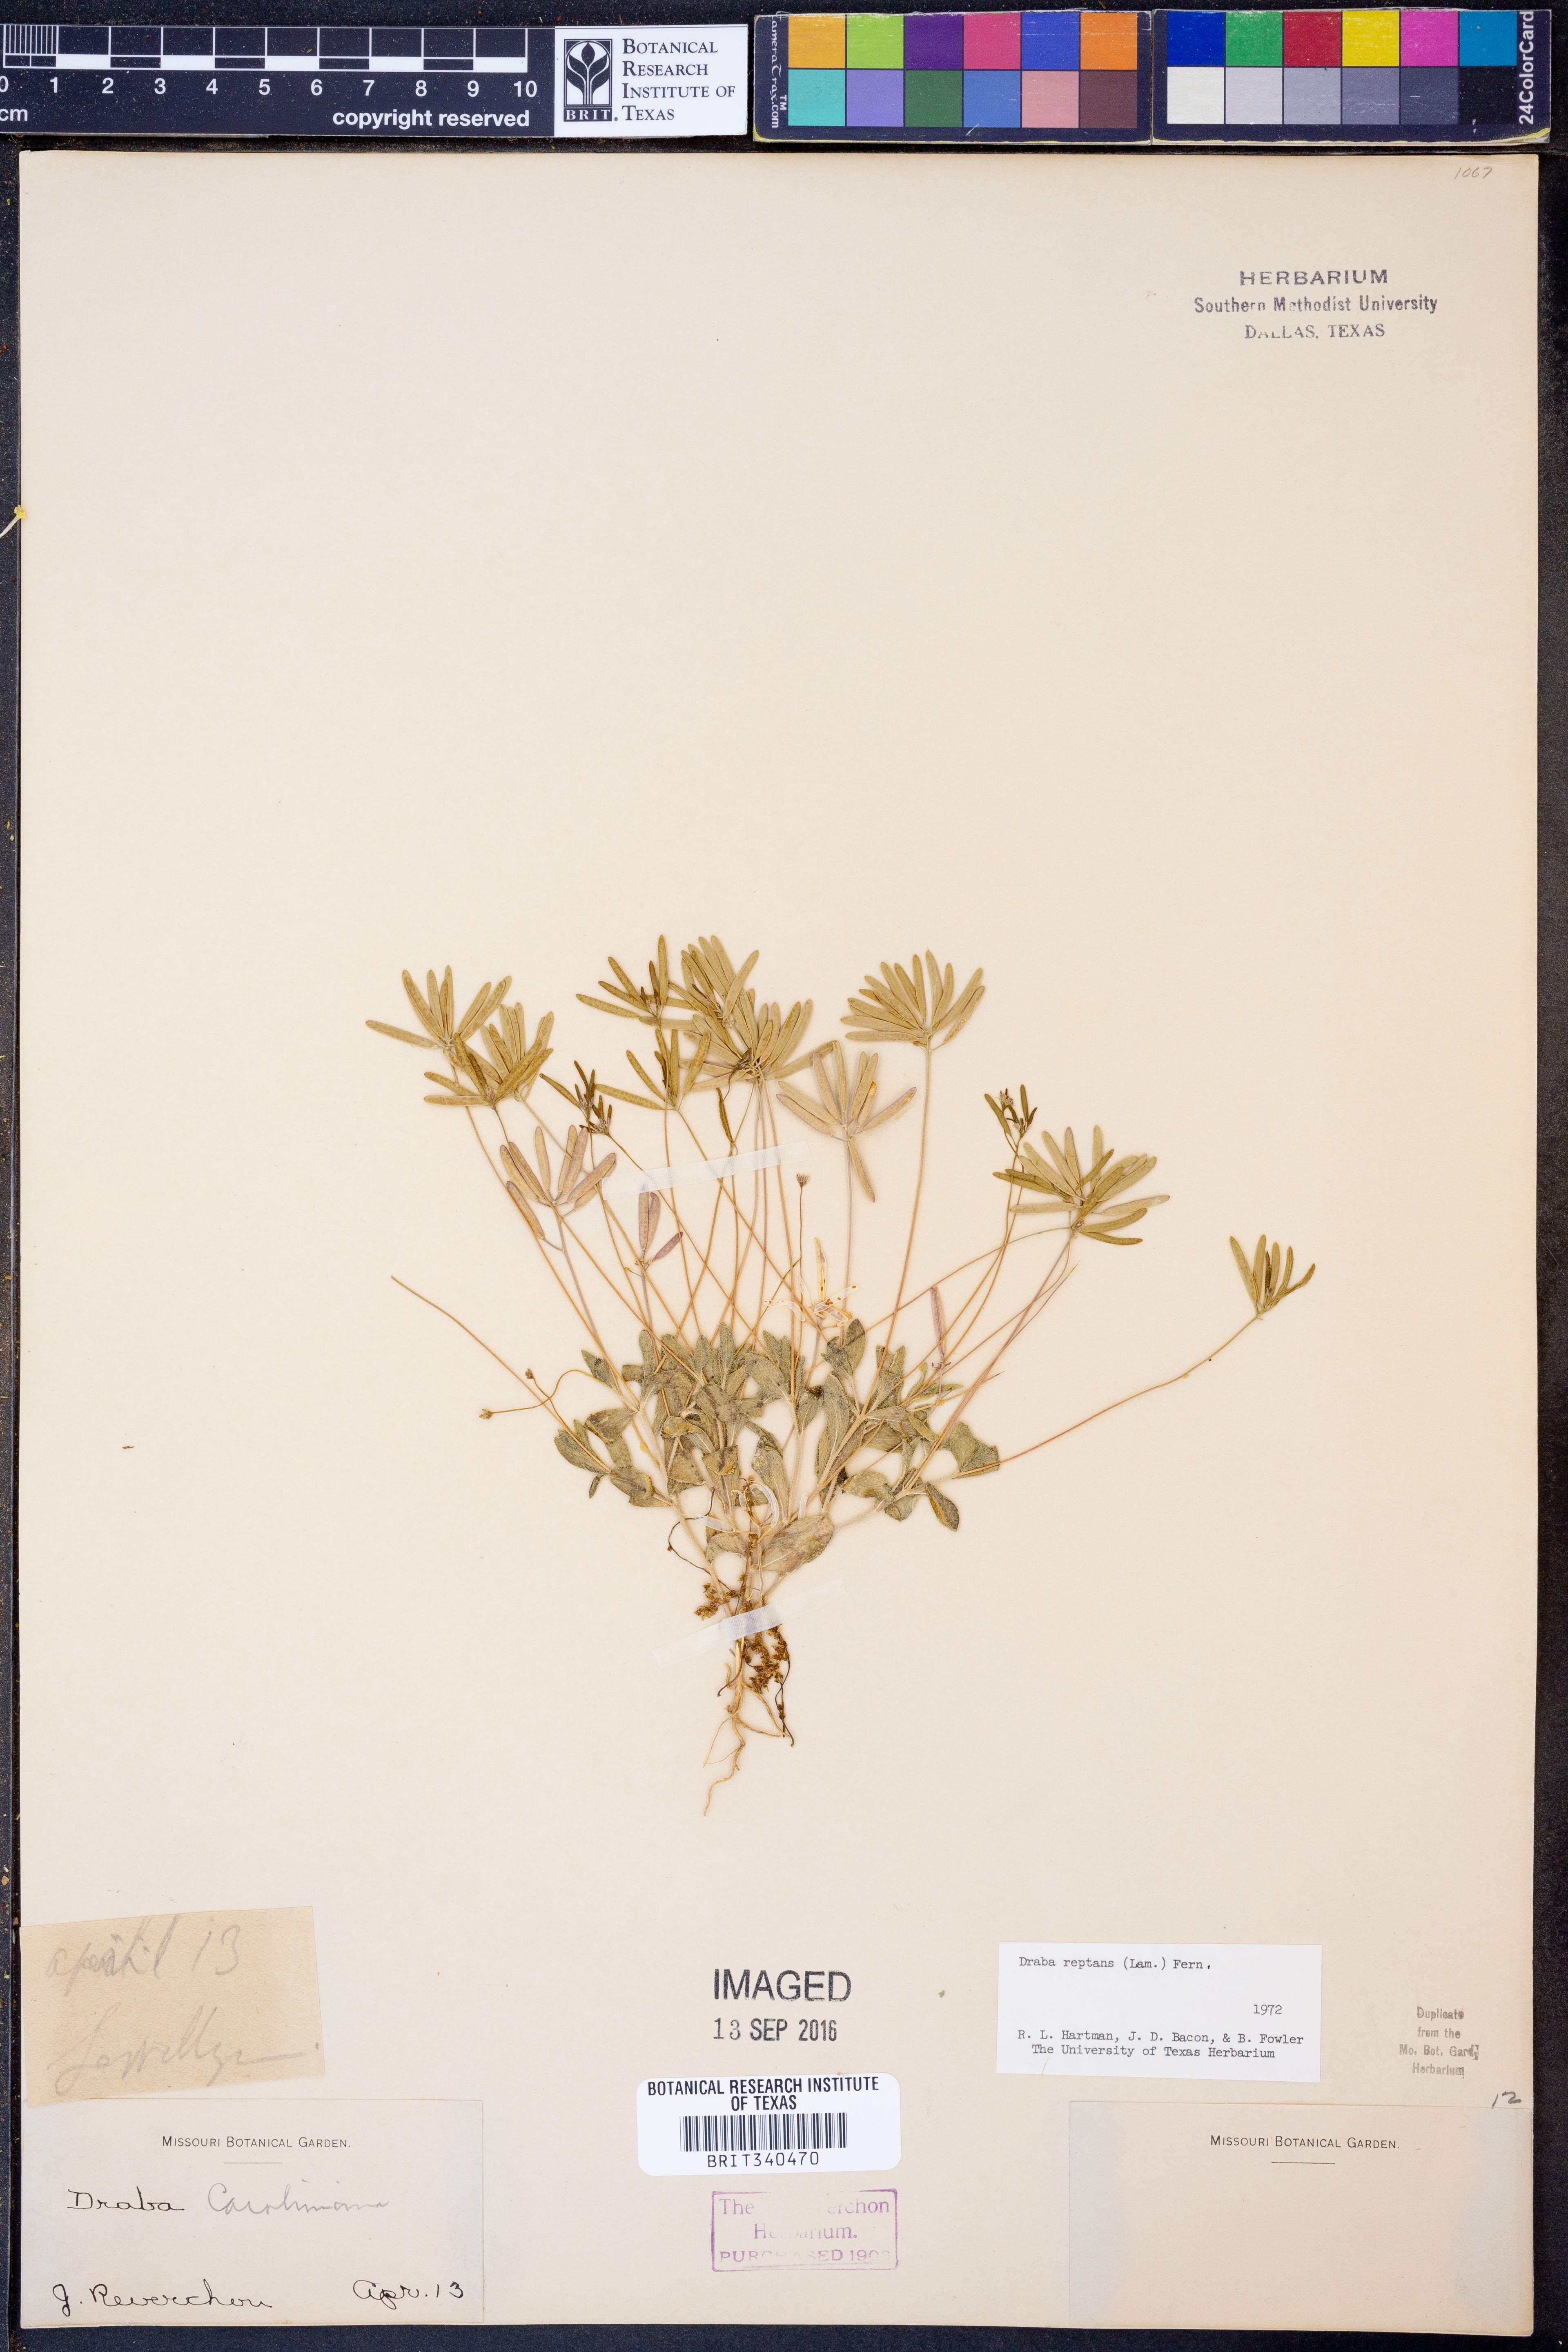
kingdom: Plantae
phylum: Tracheophyta
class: Magnoliopsida
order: Brassicales
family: Brassicaceae
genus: Tomostima
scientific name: Tomostima reptans
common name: Carolina draba
